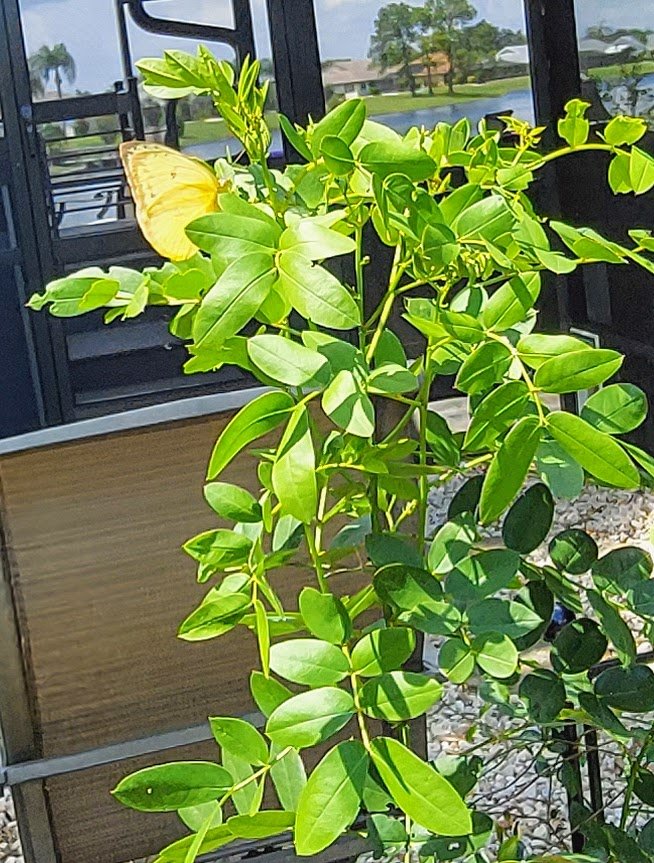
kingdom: Animalia
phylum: Arthropoda
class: Insecta
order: Lepidoptera
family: Pieridae
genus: Phoebis
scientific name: Phoebis sennae
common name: Cloudless Sulphur
